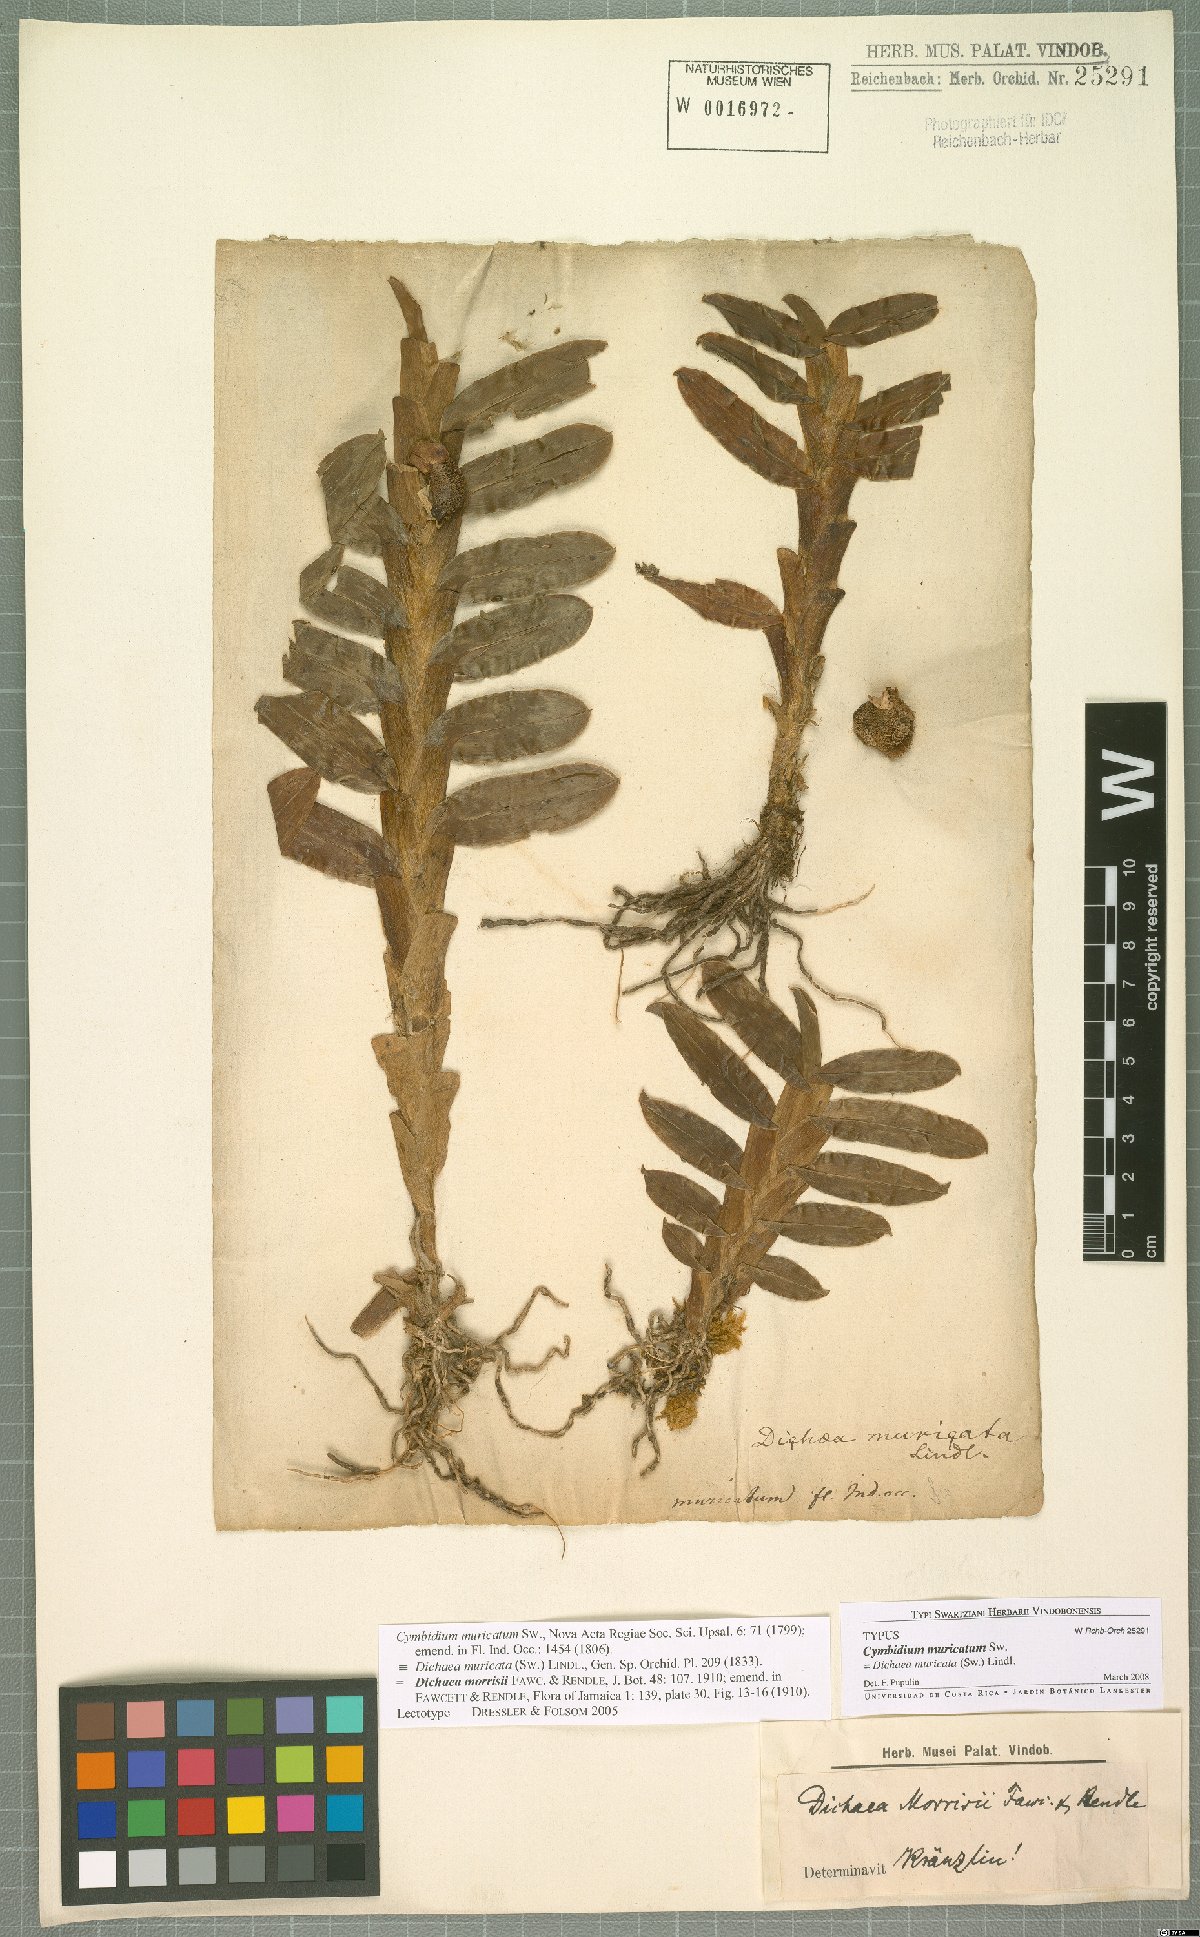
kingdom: Plantae
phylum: Tracheophyta
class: Liliopsida
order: Asparagales
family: Orchidaceae
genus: Dichaea
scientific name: Dichaea morrisii
